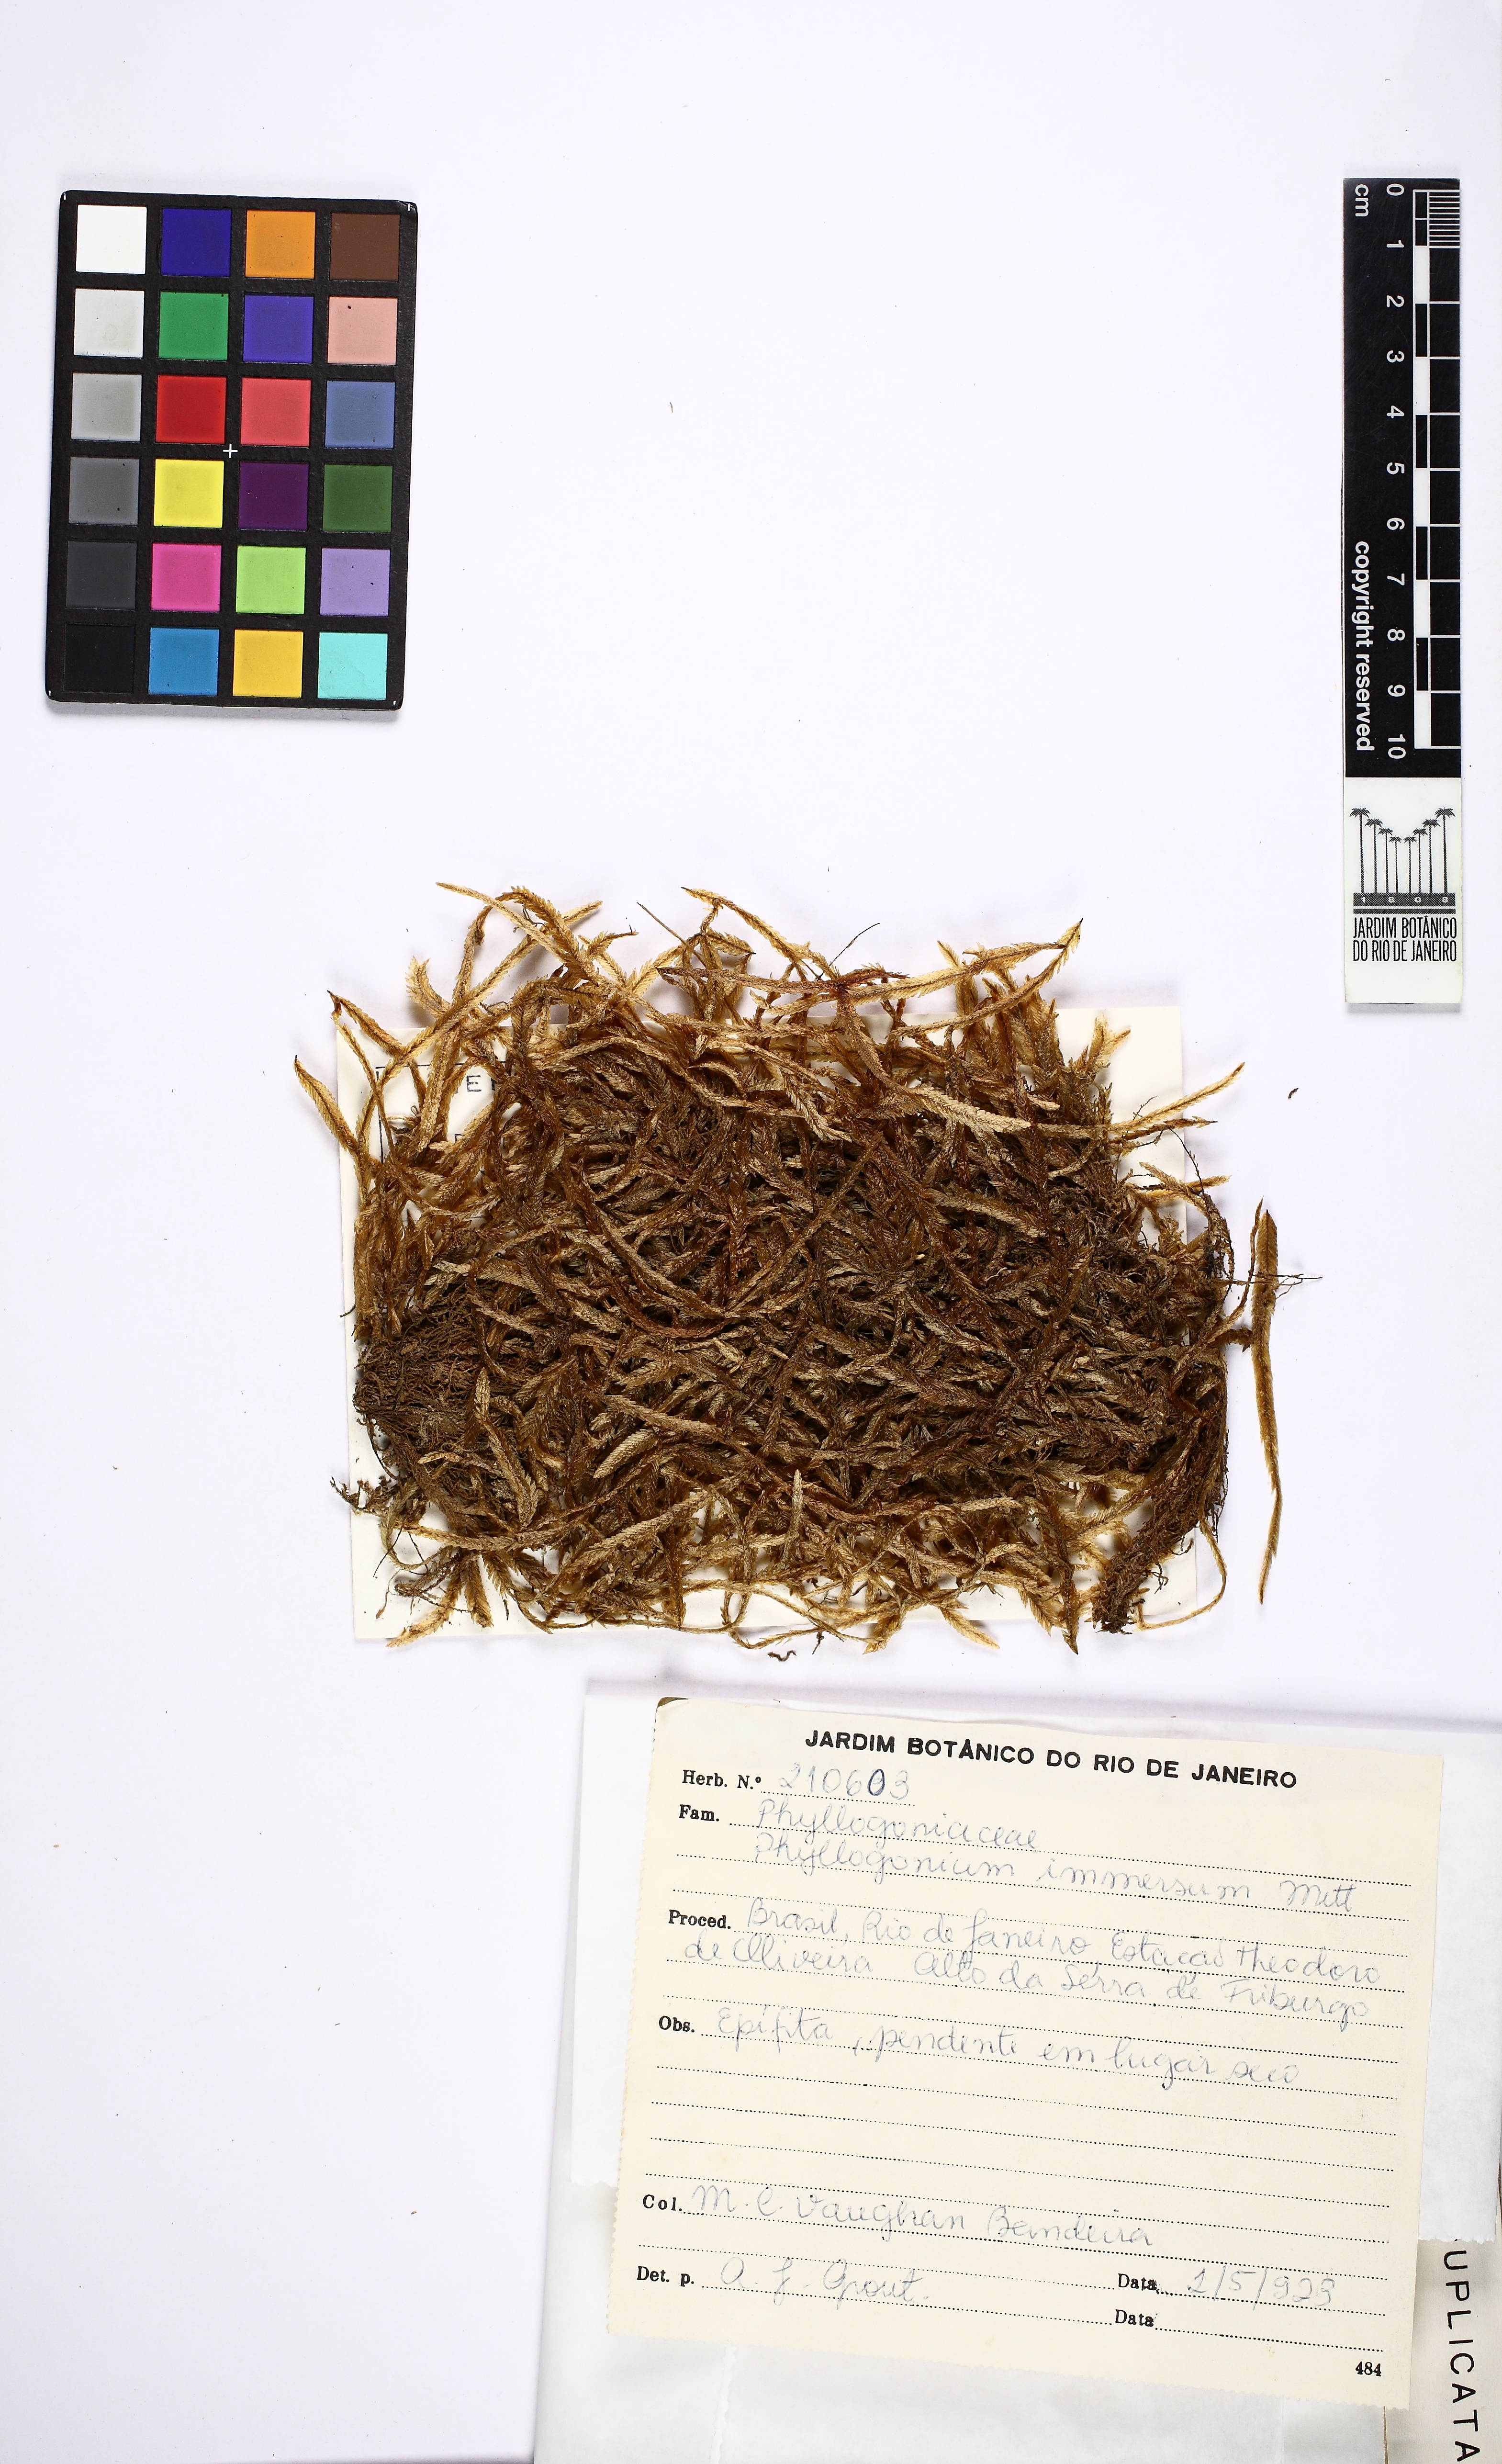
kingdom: Plantae
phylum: Bryophyta
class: Bryopsida
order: Hypnales
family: Phyllogoniaceae
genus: Phyllogonium
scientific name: Phyllogonium viride
